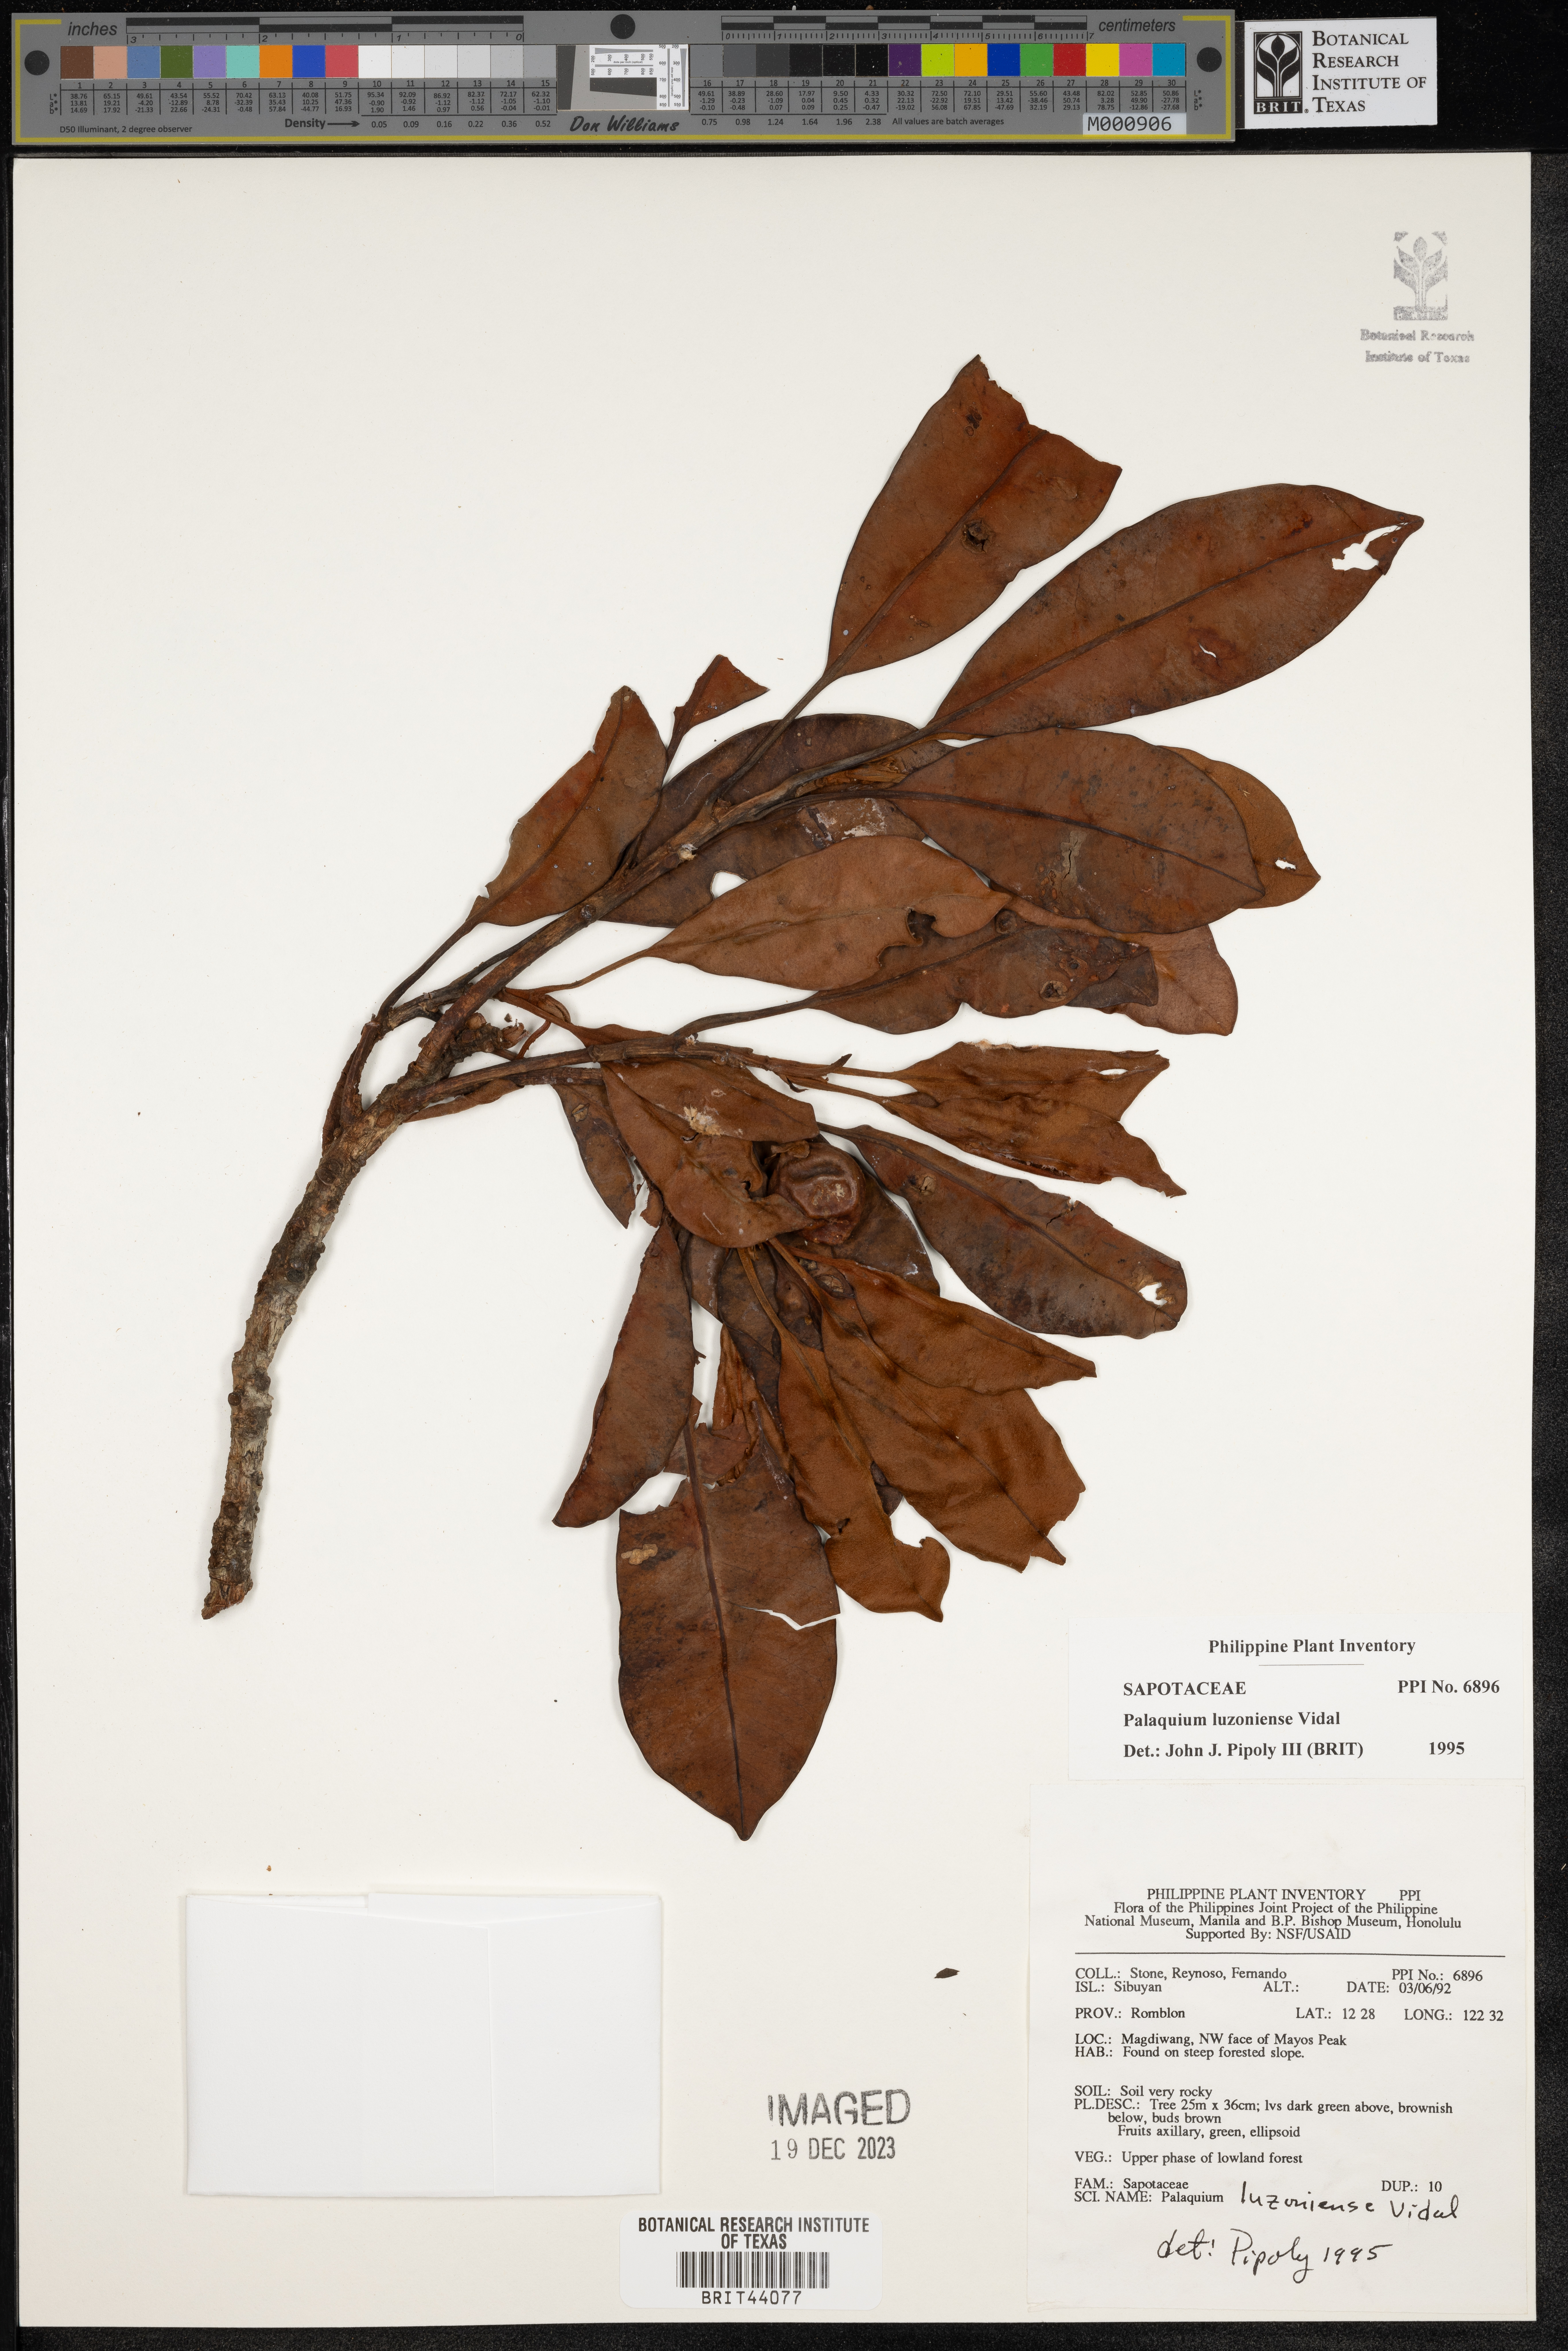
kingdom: Plantae
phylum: Tracheophyta
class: Magnoliopsida
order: Ericales
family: Sapotaceae
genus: Palaquium
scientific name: Palaquium luzoniense
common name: Red nato
